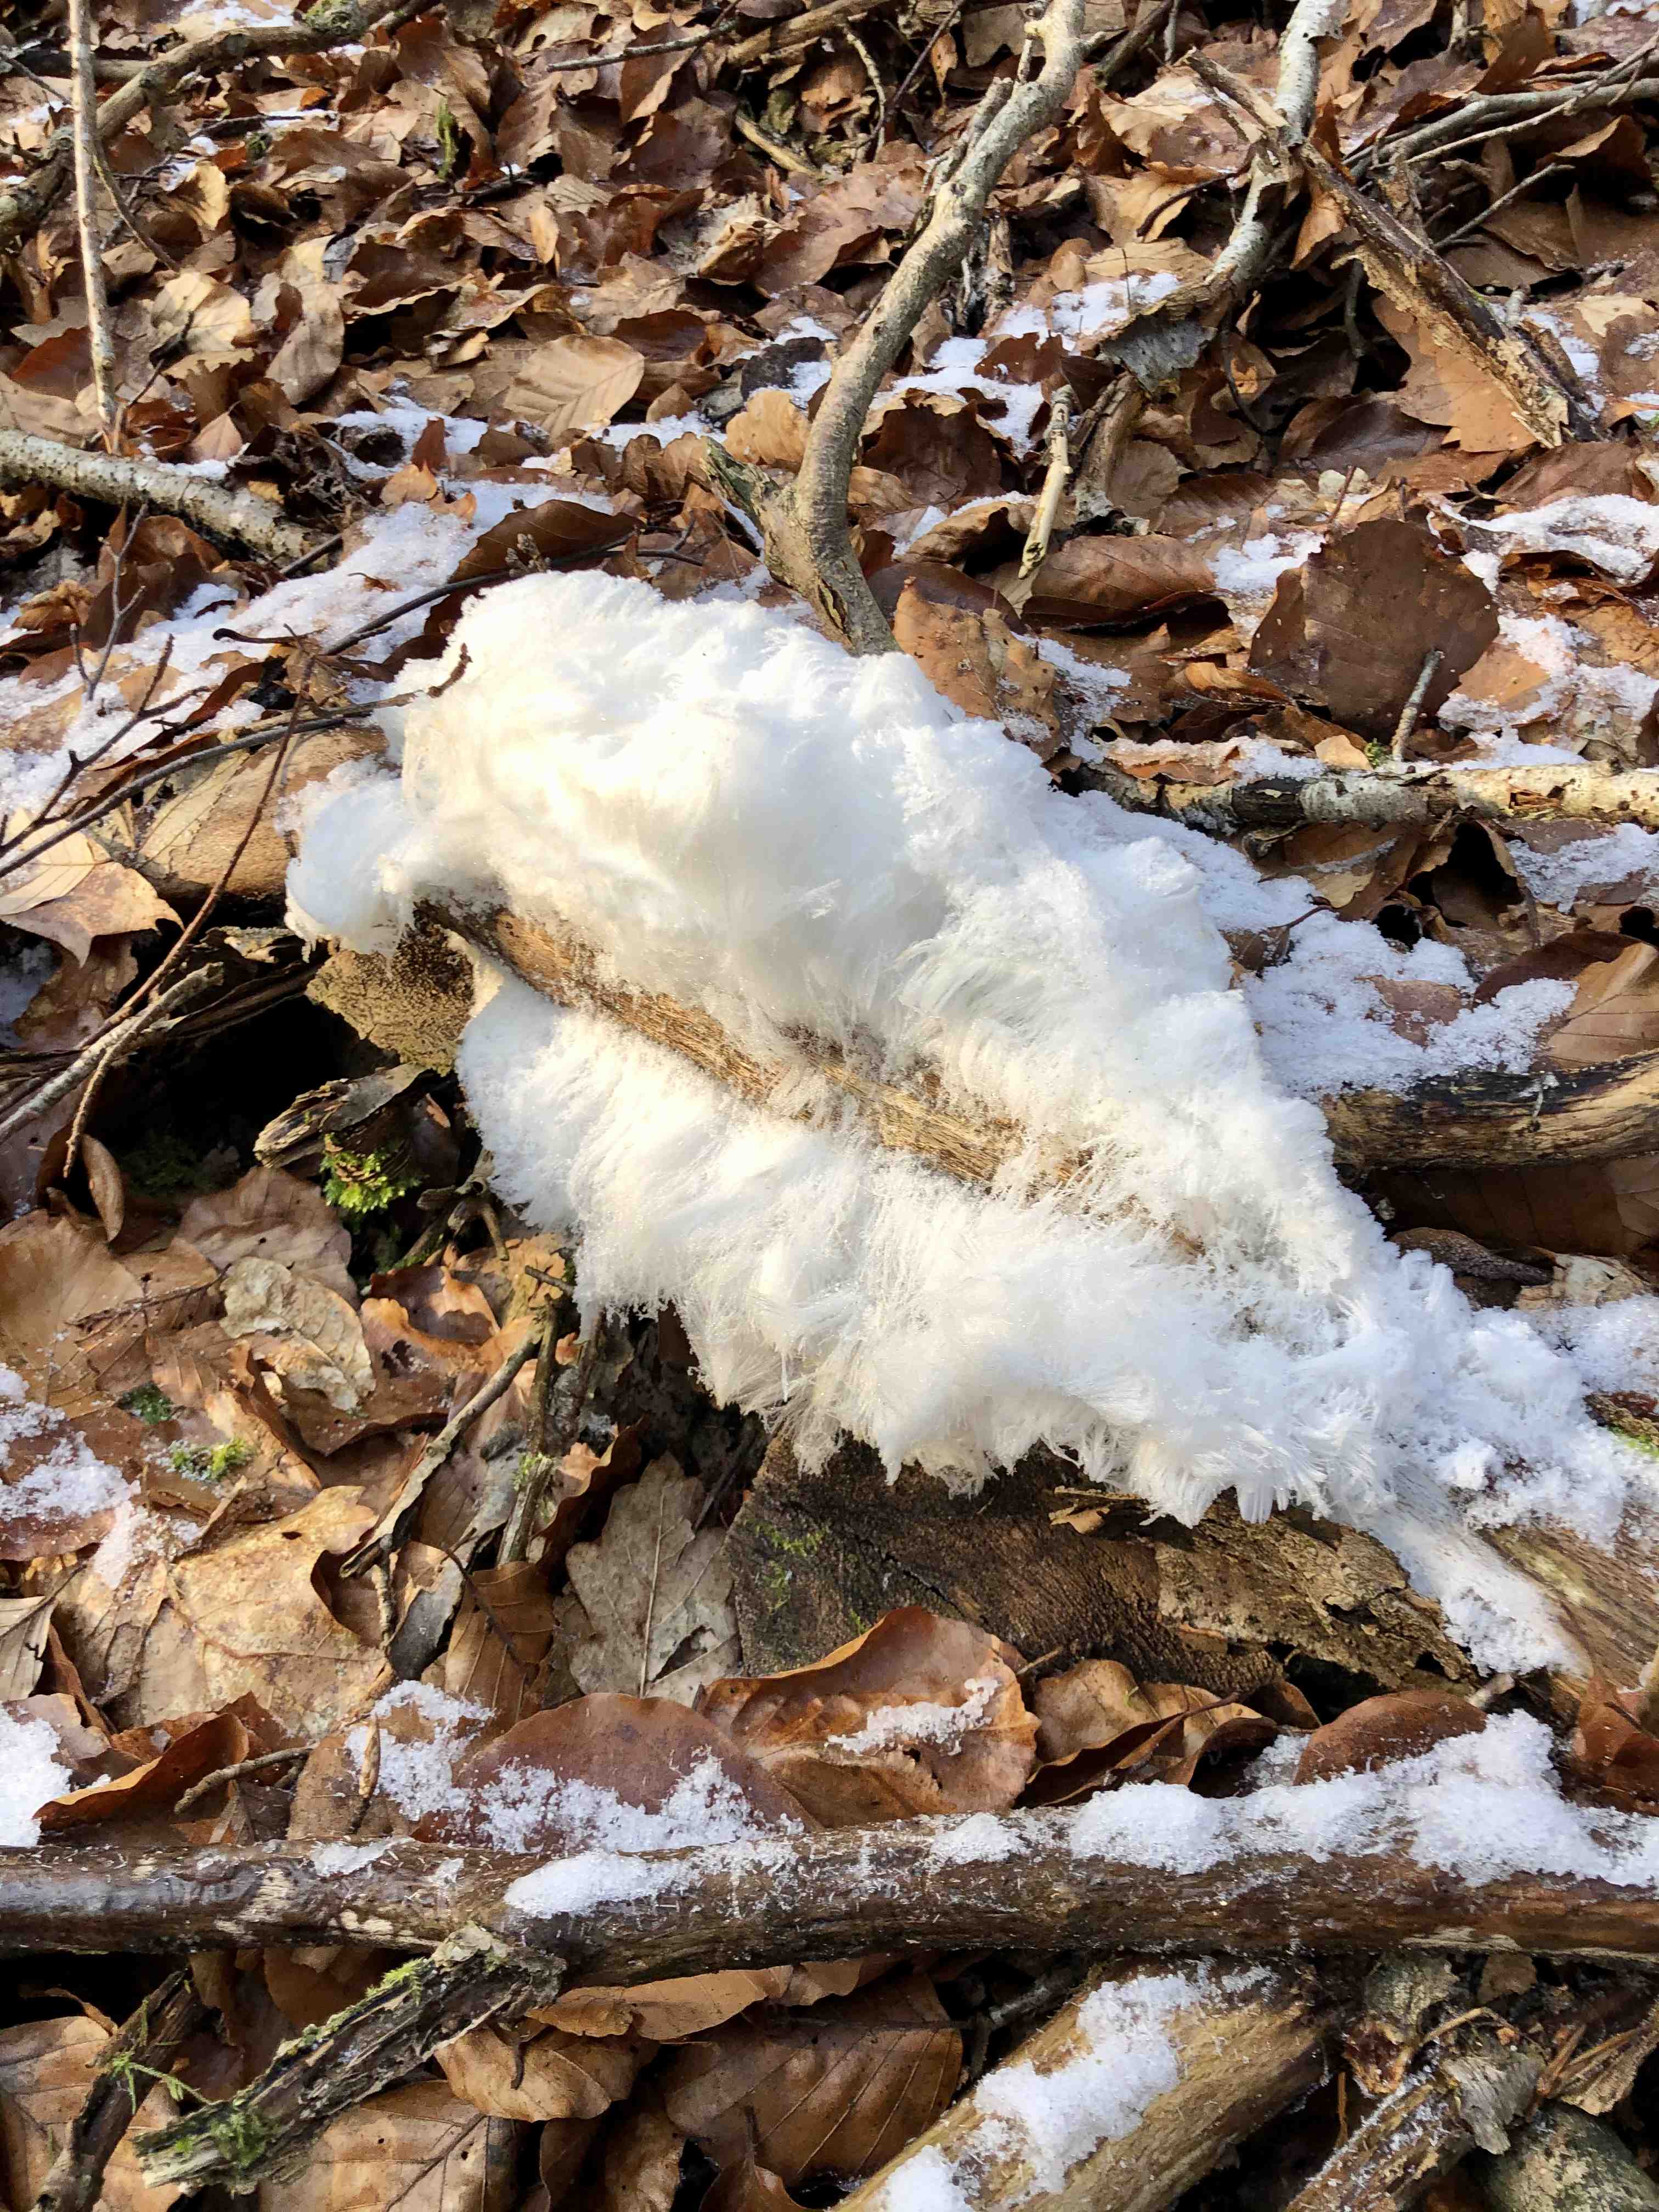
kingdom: Fungi
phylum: Basidiomycota
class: Tremellomycetes
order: Tremellales
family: Exidiaceae
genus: Exidiopsis
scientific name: Exidiopsis effusa
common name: smuk bævrehinde
